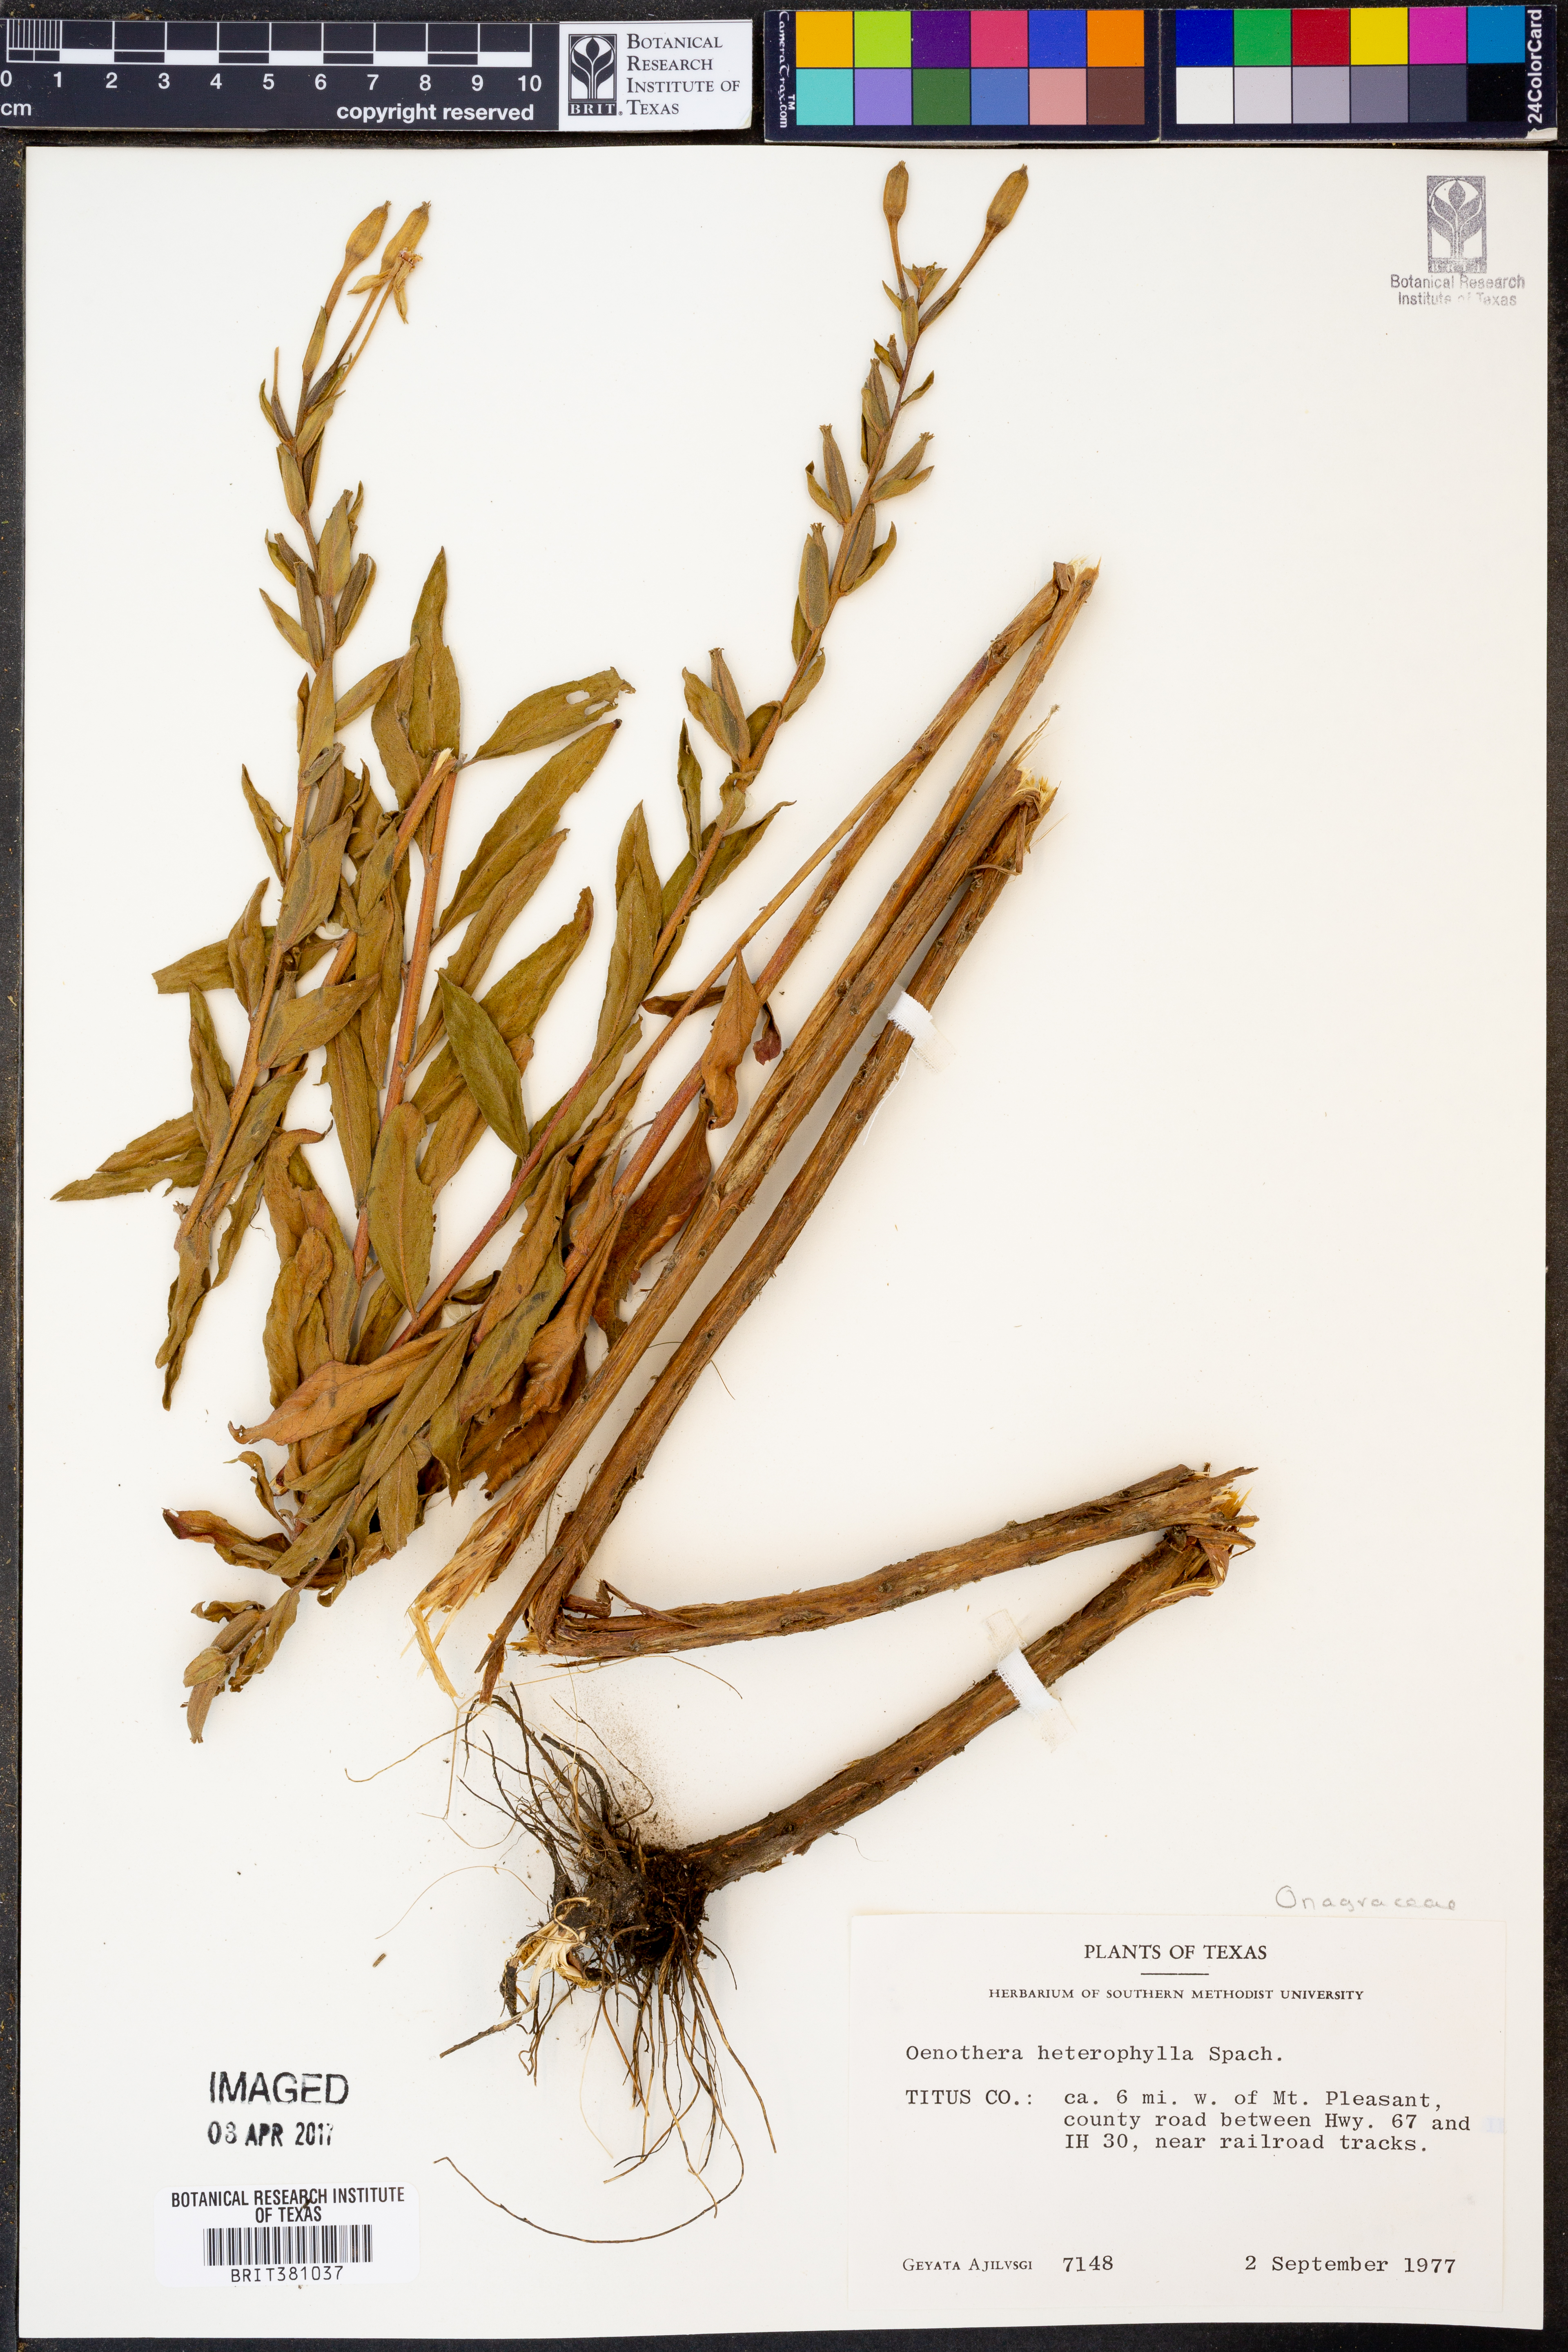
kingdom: Plantae
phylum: Tracheophyta
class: Magnoliopsida
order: Myrtales
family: Onagraceae
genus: Camissonia
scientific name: Camissonia dentata
